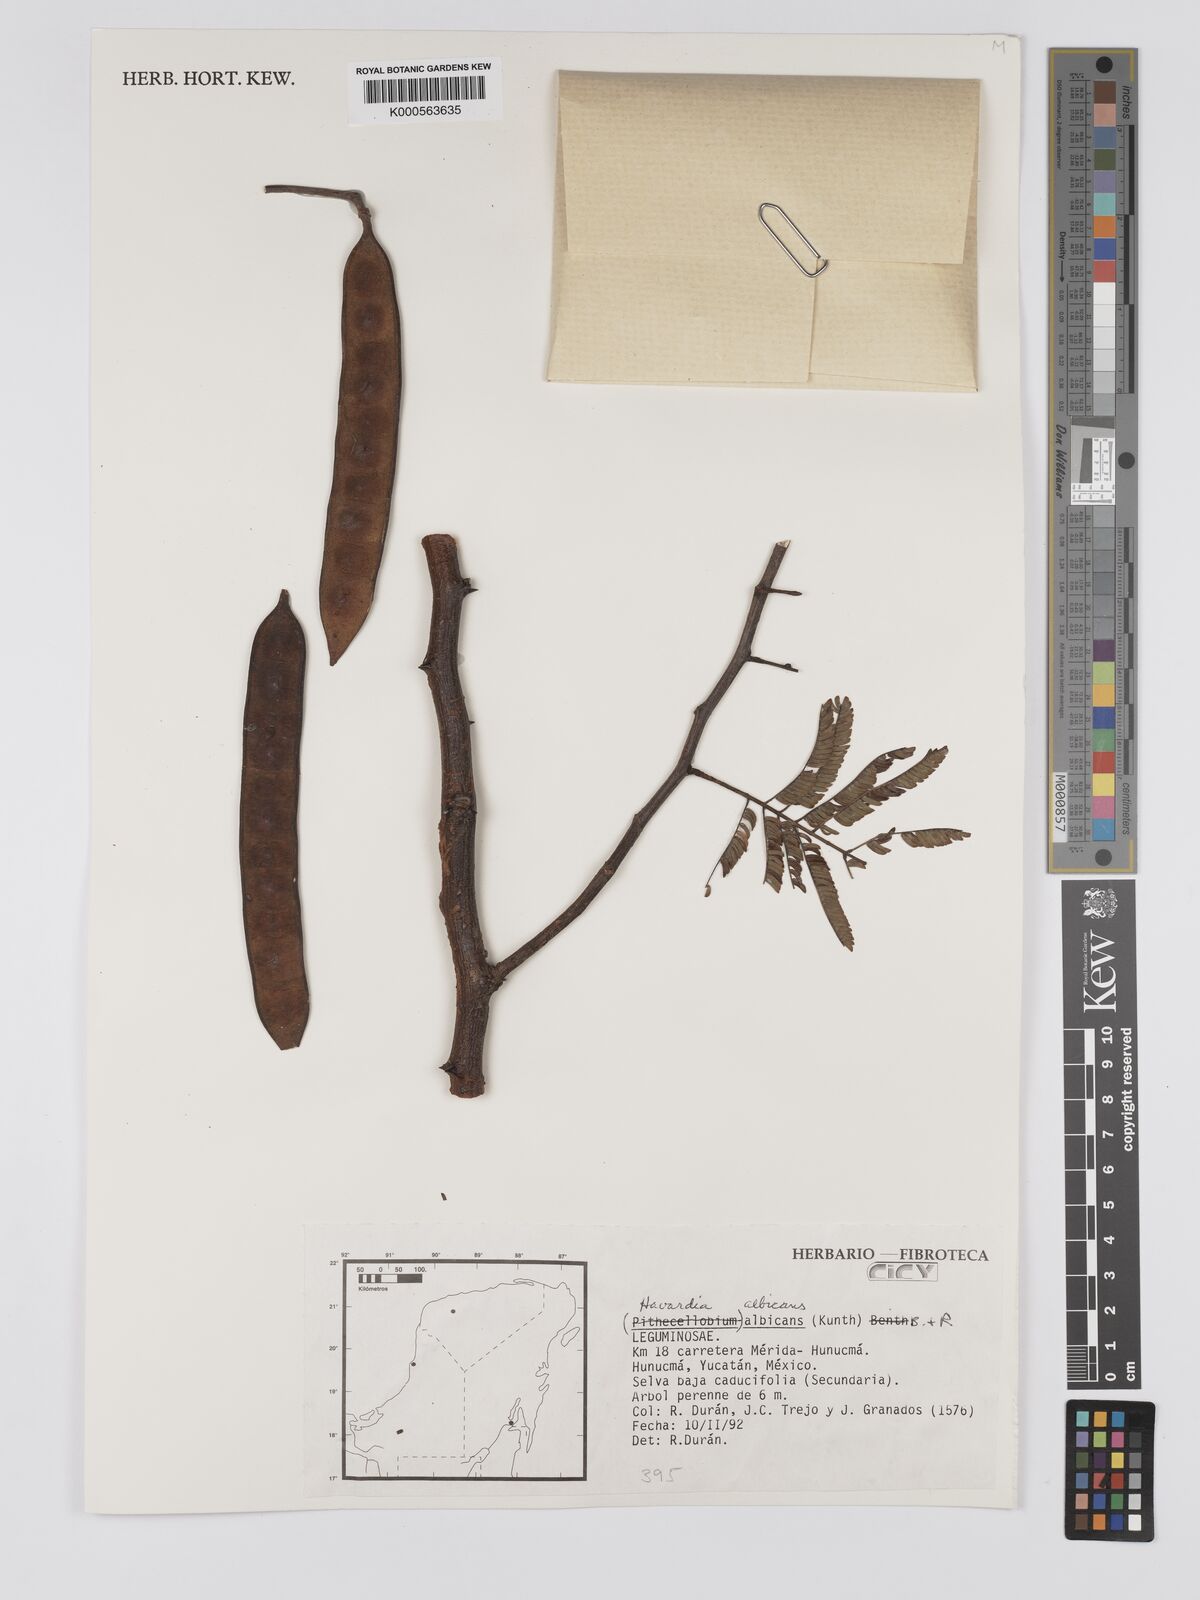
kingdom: Plantae
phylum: Tracheophyta
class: Magnoliopsida
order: Fabales
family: Fabaceae
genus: Havardia
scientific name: Havardia albicans
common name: Huisache
